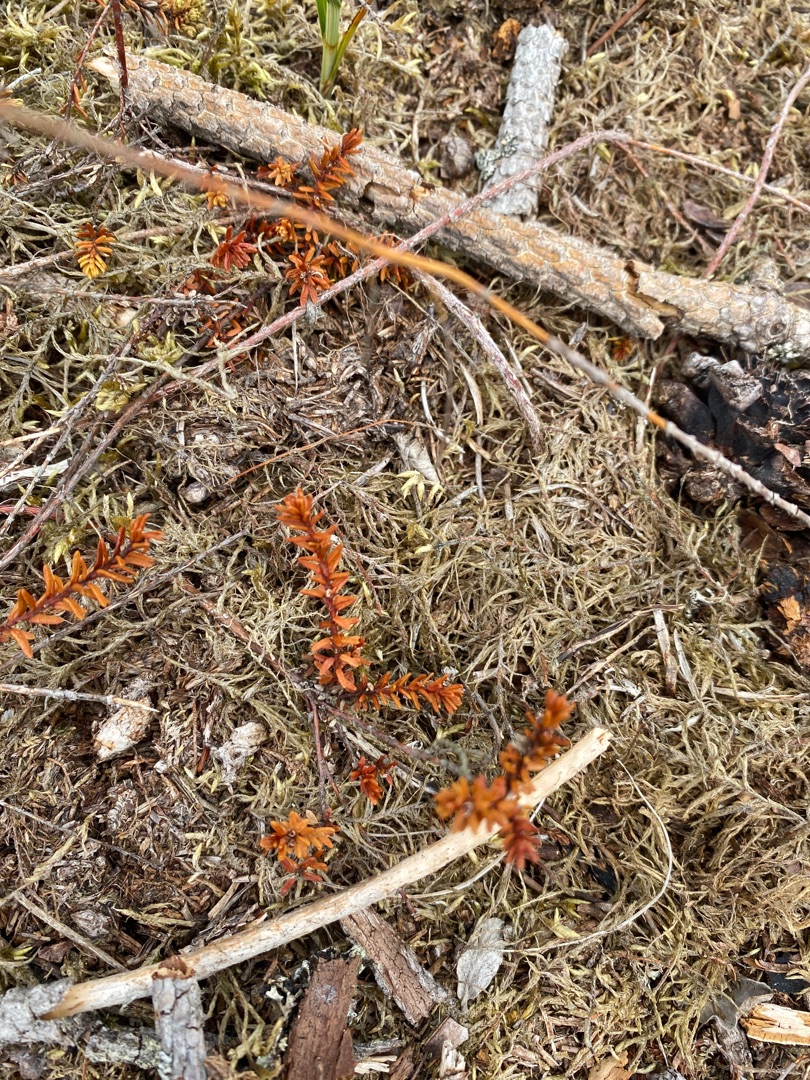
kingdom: Plantae
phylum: Tracheophyta
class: Magnoliopsida
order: Ericales
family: Ericaceae
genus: Empetrum
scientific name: Empetrum nigrum
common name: Revling
